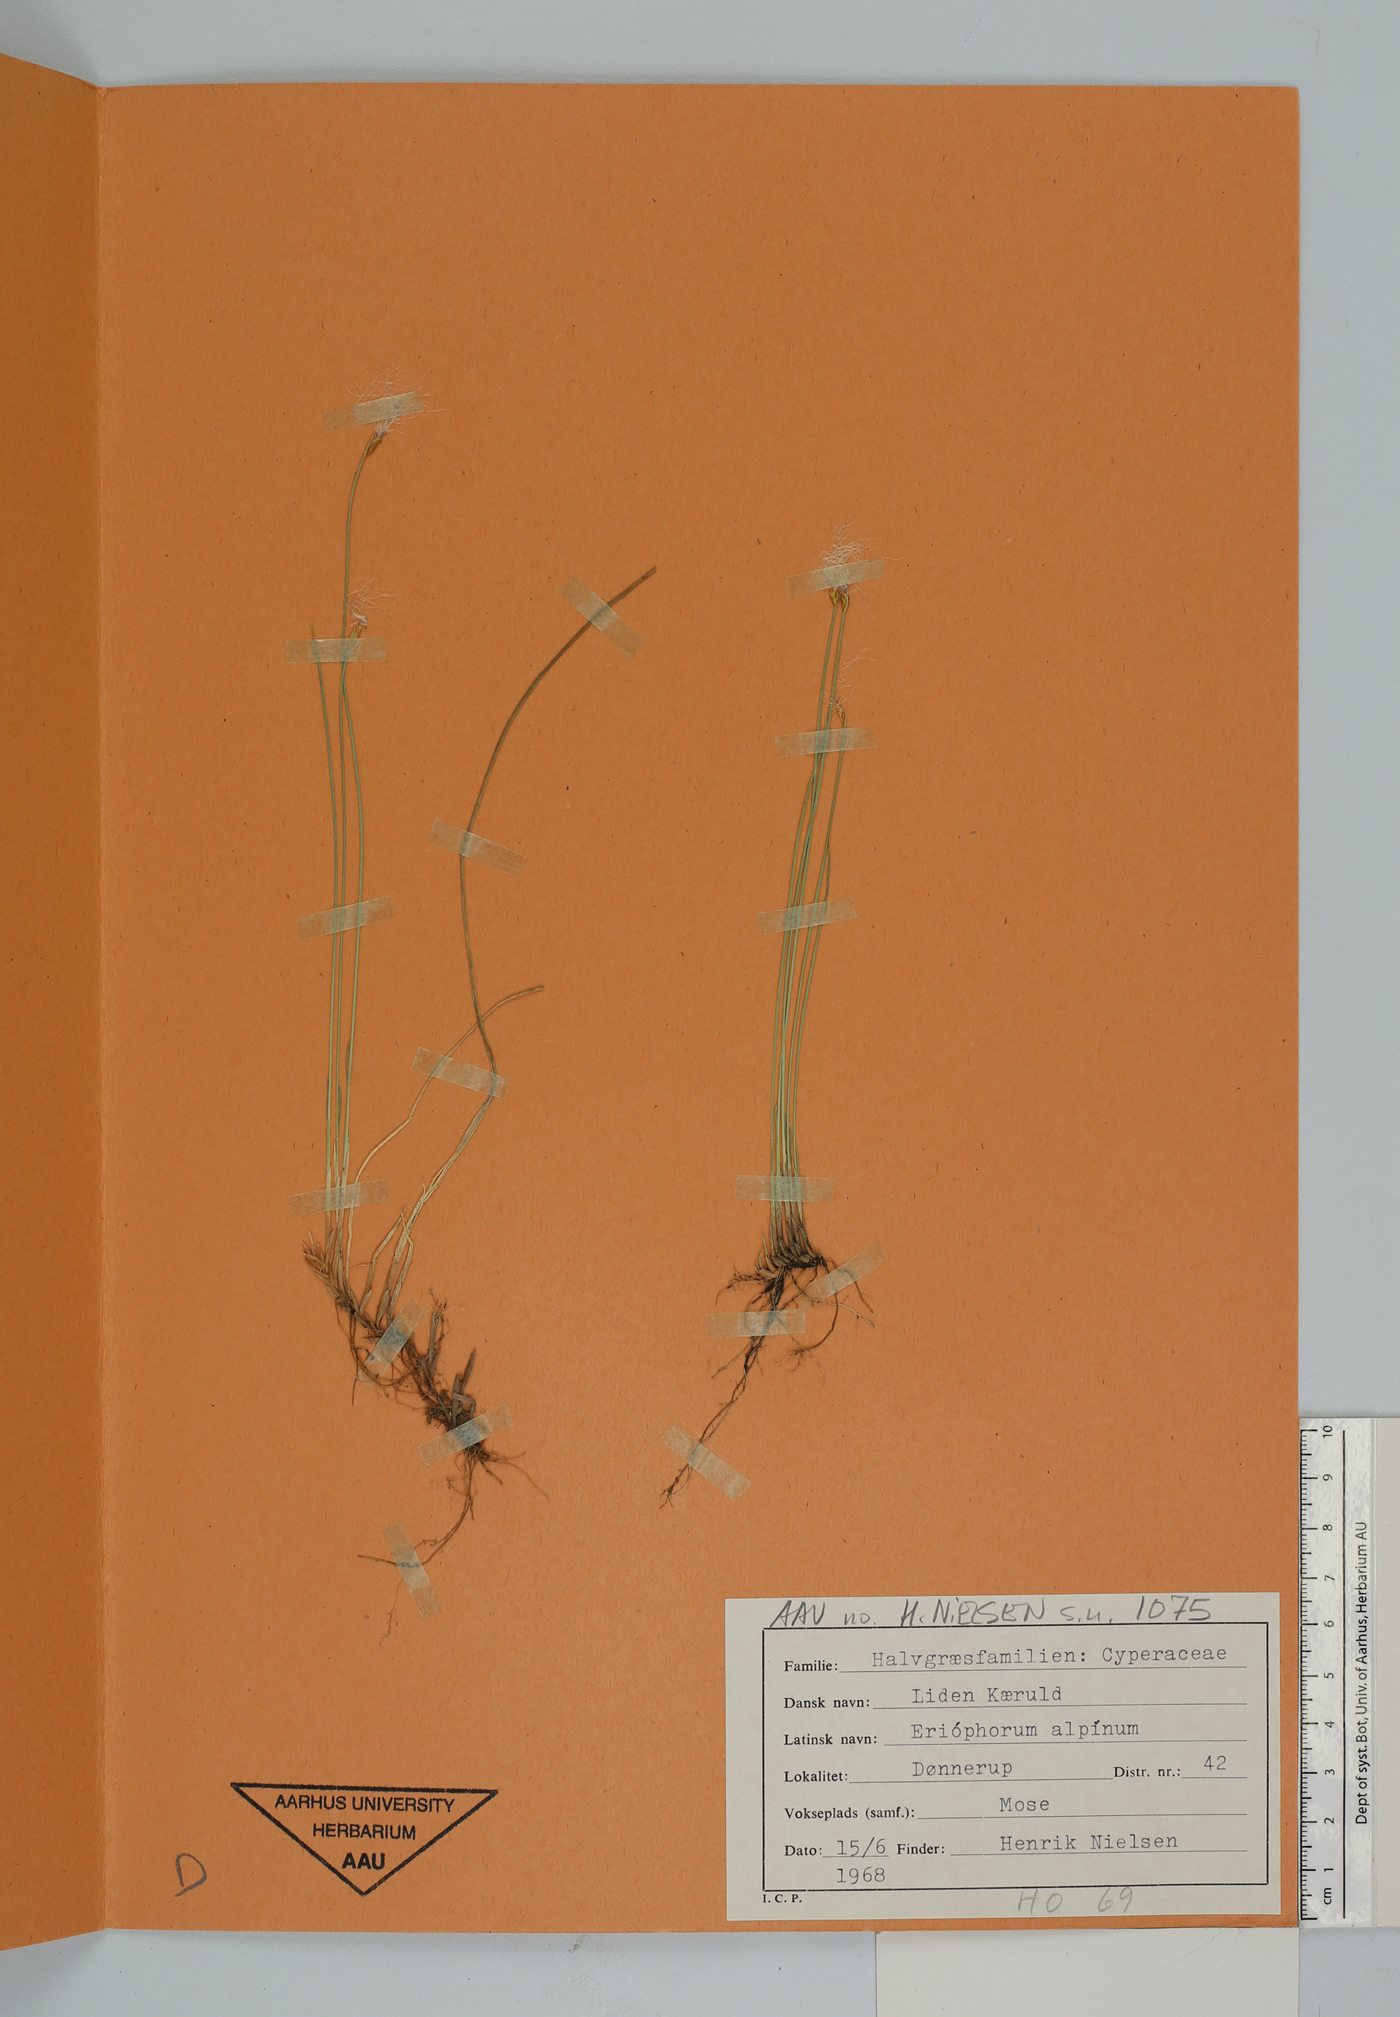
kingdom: Plantae
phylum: Tracheophyta
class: Liliopsida
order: Poales
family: Cyperaceae
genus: Trichophorum
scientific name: Trichophorum alpinum
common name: Alpine bulrush
